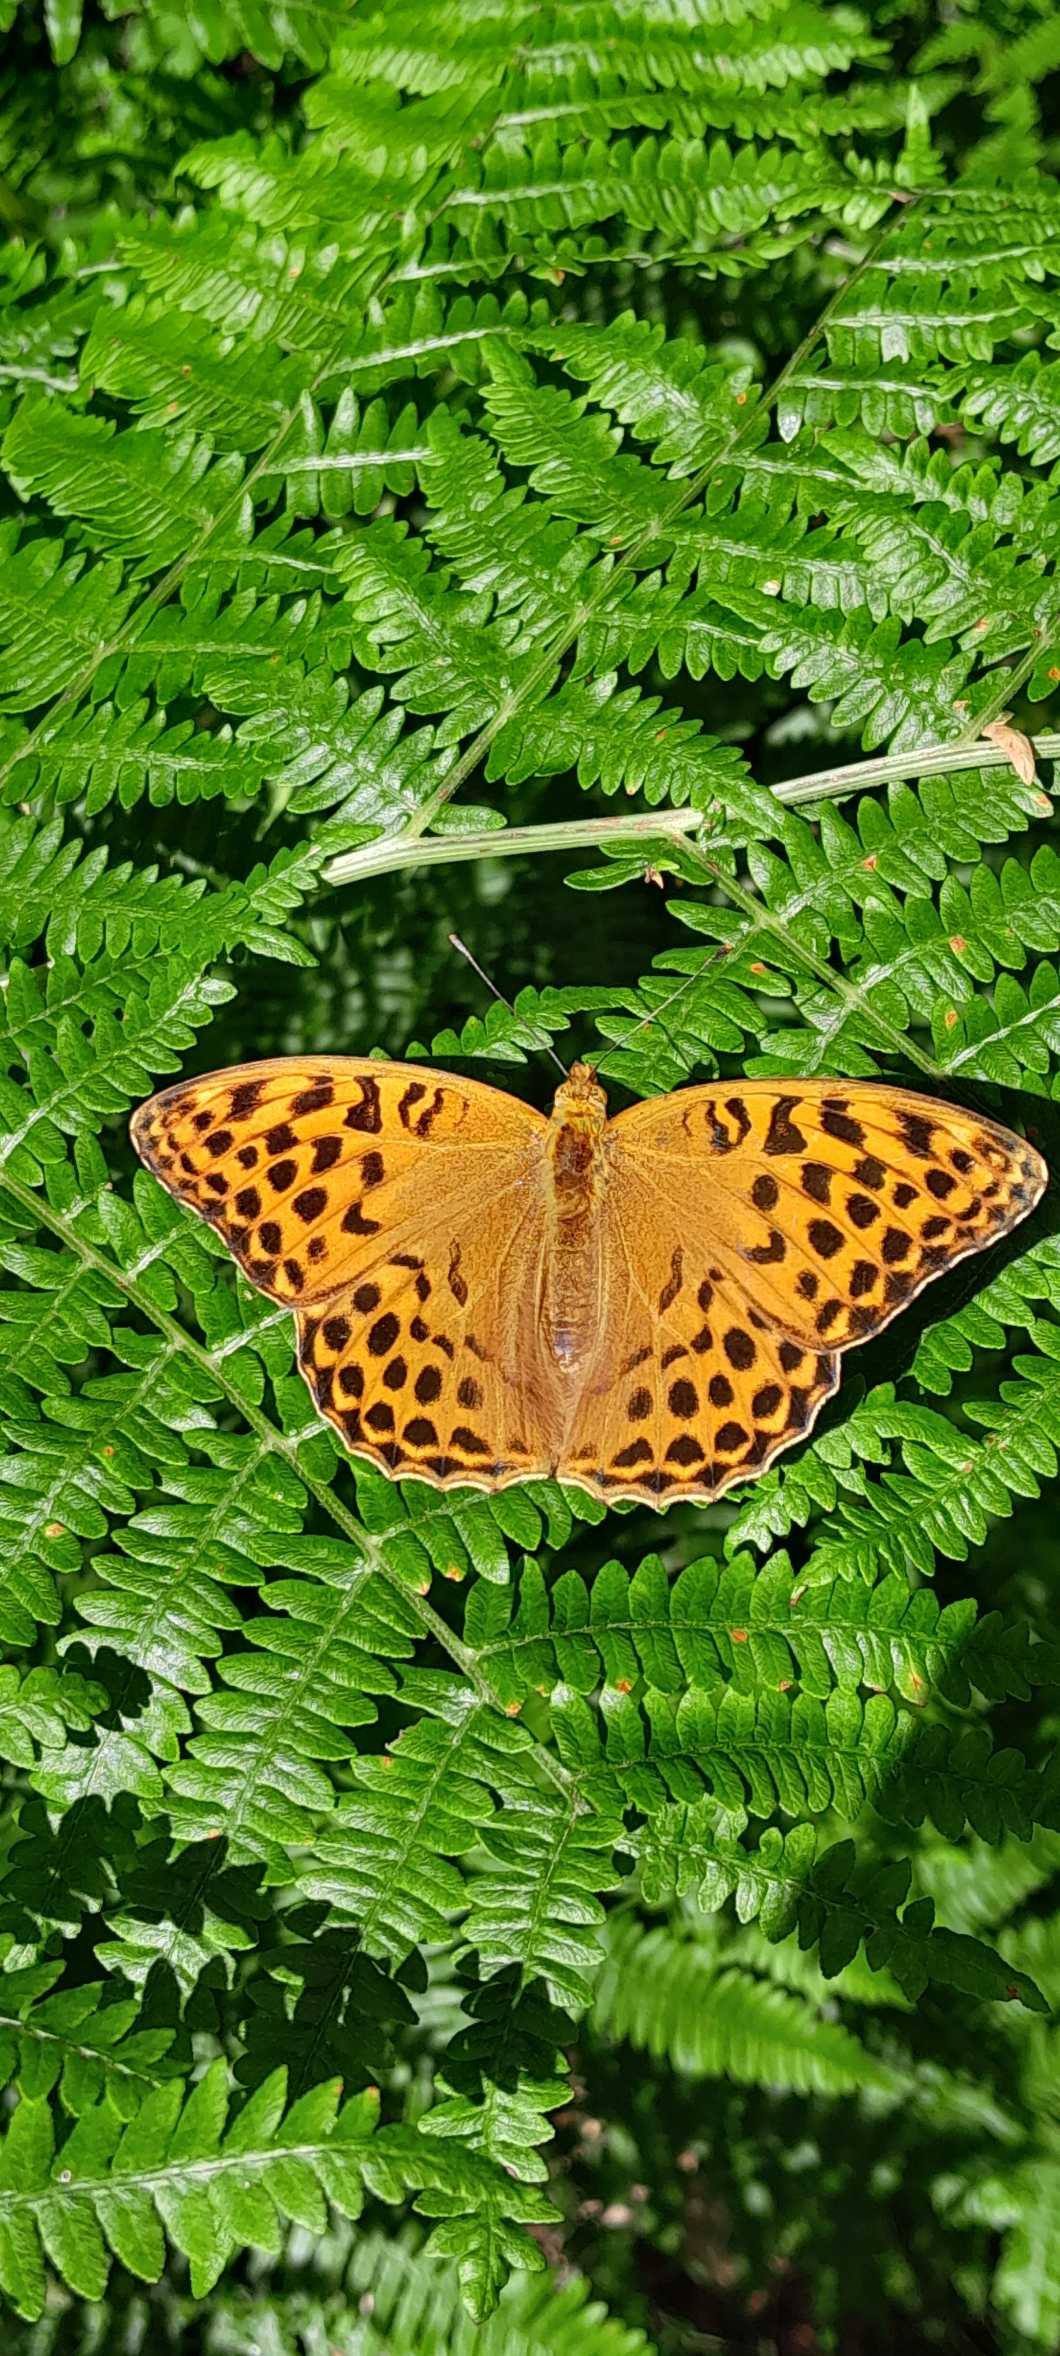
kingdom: Animalia
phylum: Arthropoda
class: Insecta
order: Lepidoptera
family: Nymphalidae
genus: Argynnis
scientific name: Argynnis paphia
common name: Kejserkåbe
